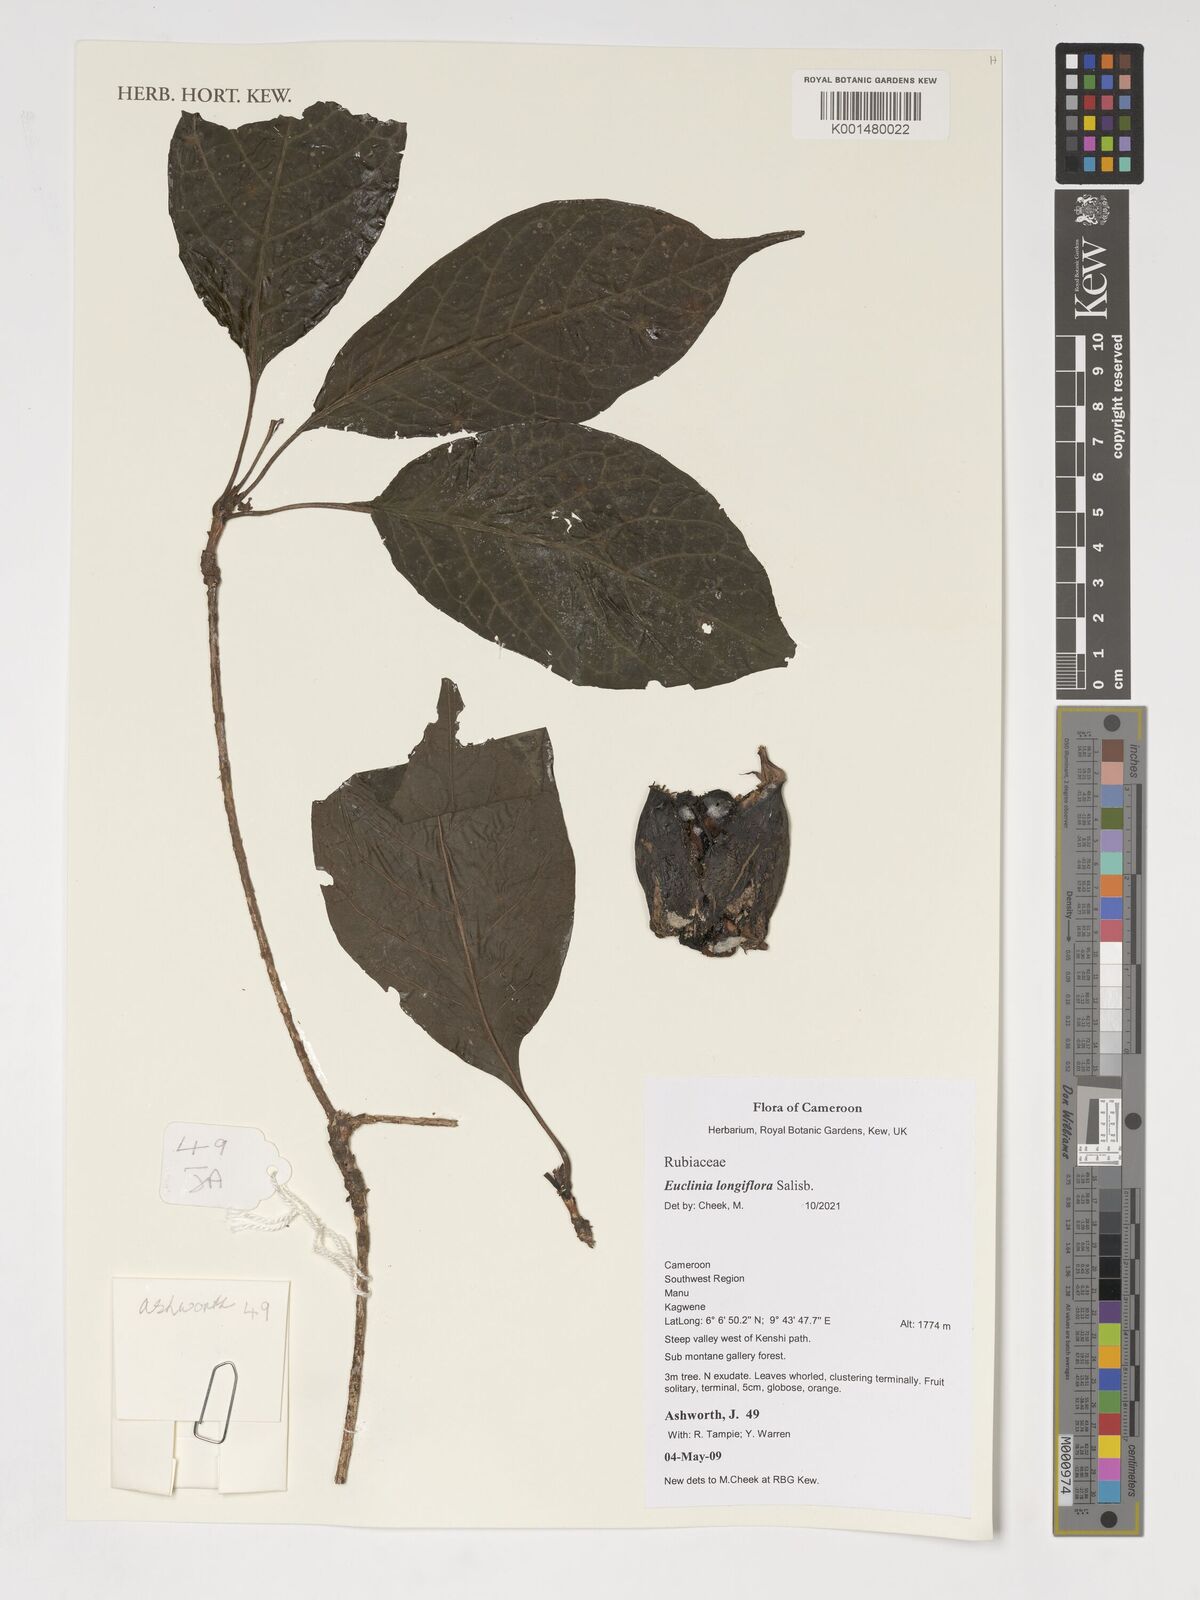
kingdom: Plantae
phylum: Tracheophyta
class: Magnoliopsida
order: Gentianales
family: Rubiaceae
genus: Euclinia
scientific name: Euclinia longiflora
